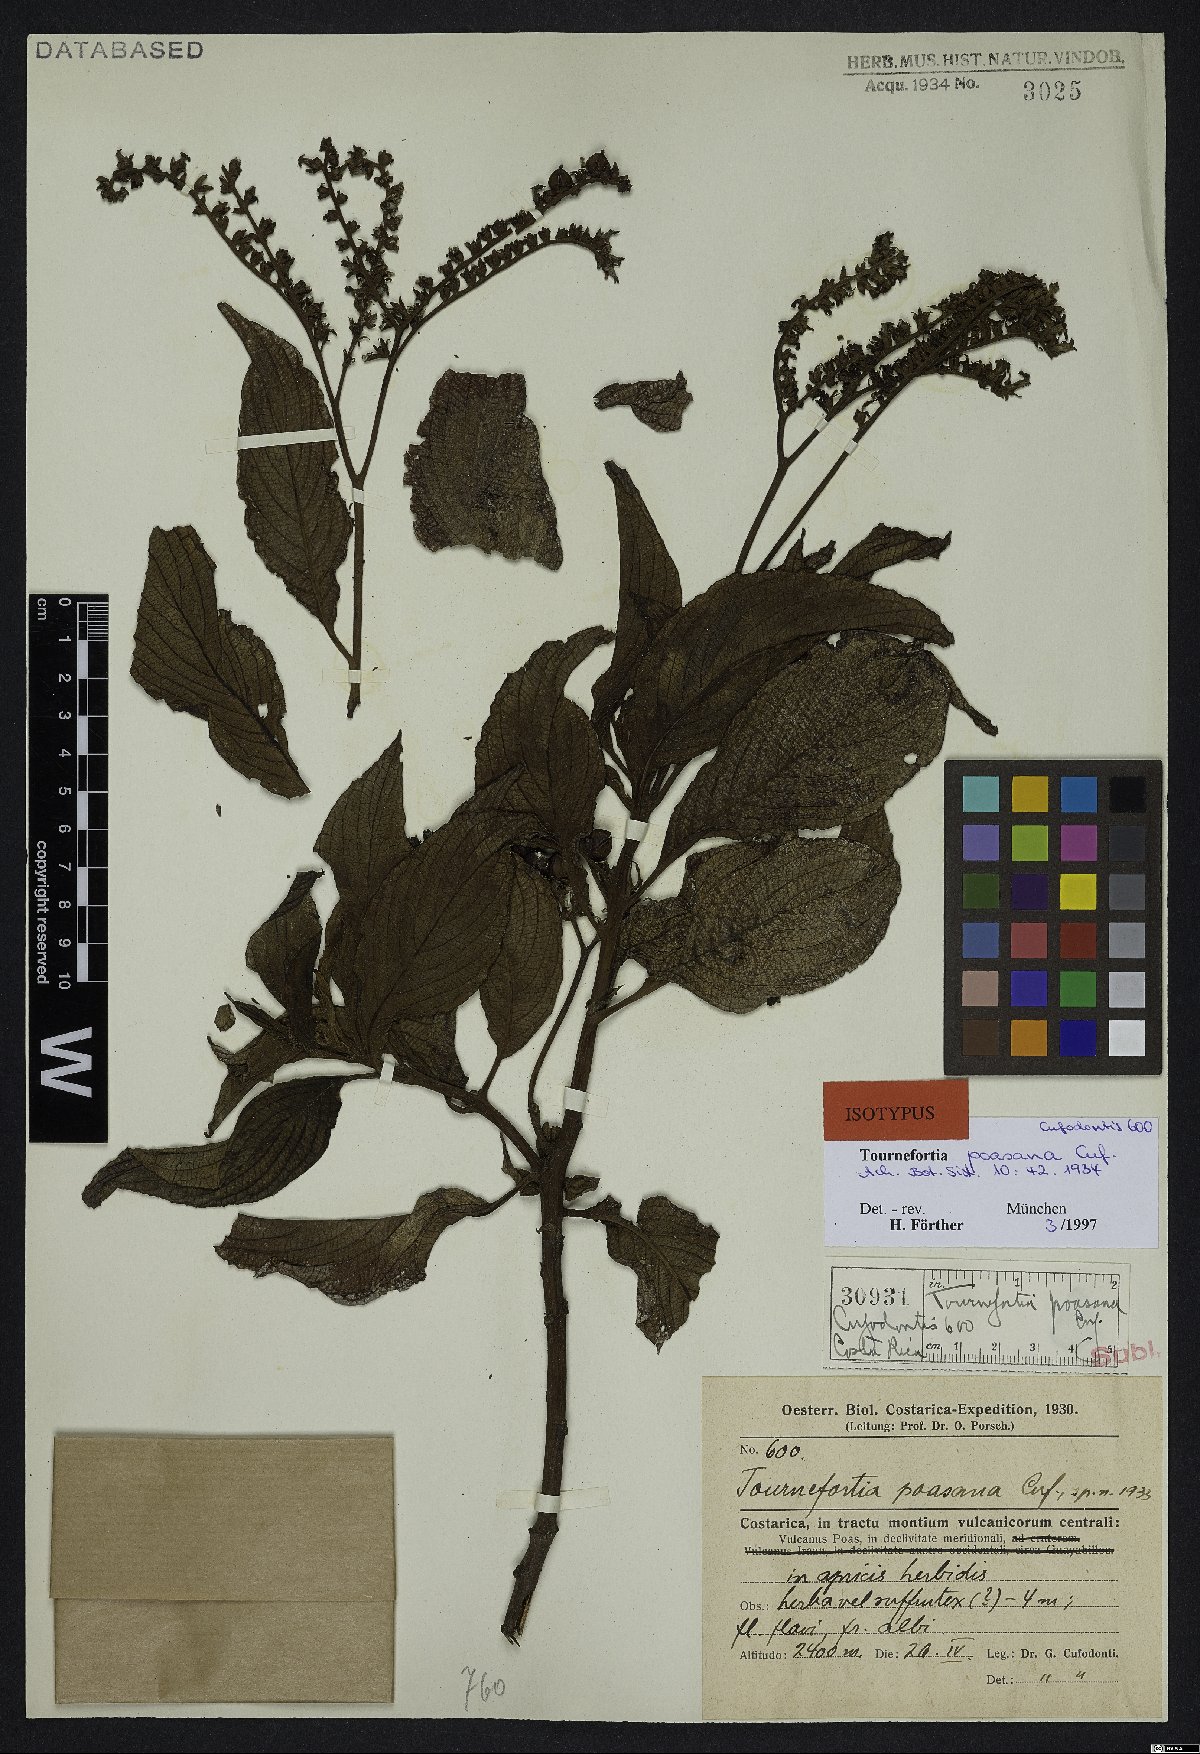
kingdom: Plantae
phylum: Tracheophyta
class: Magnoliopsida
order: Boraginales
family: Heliotropiaceae
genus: Tournefortia
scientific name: Tournefortia subspicata
